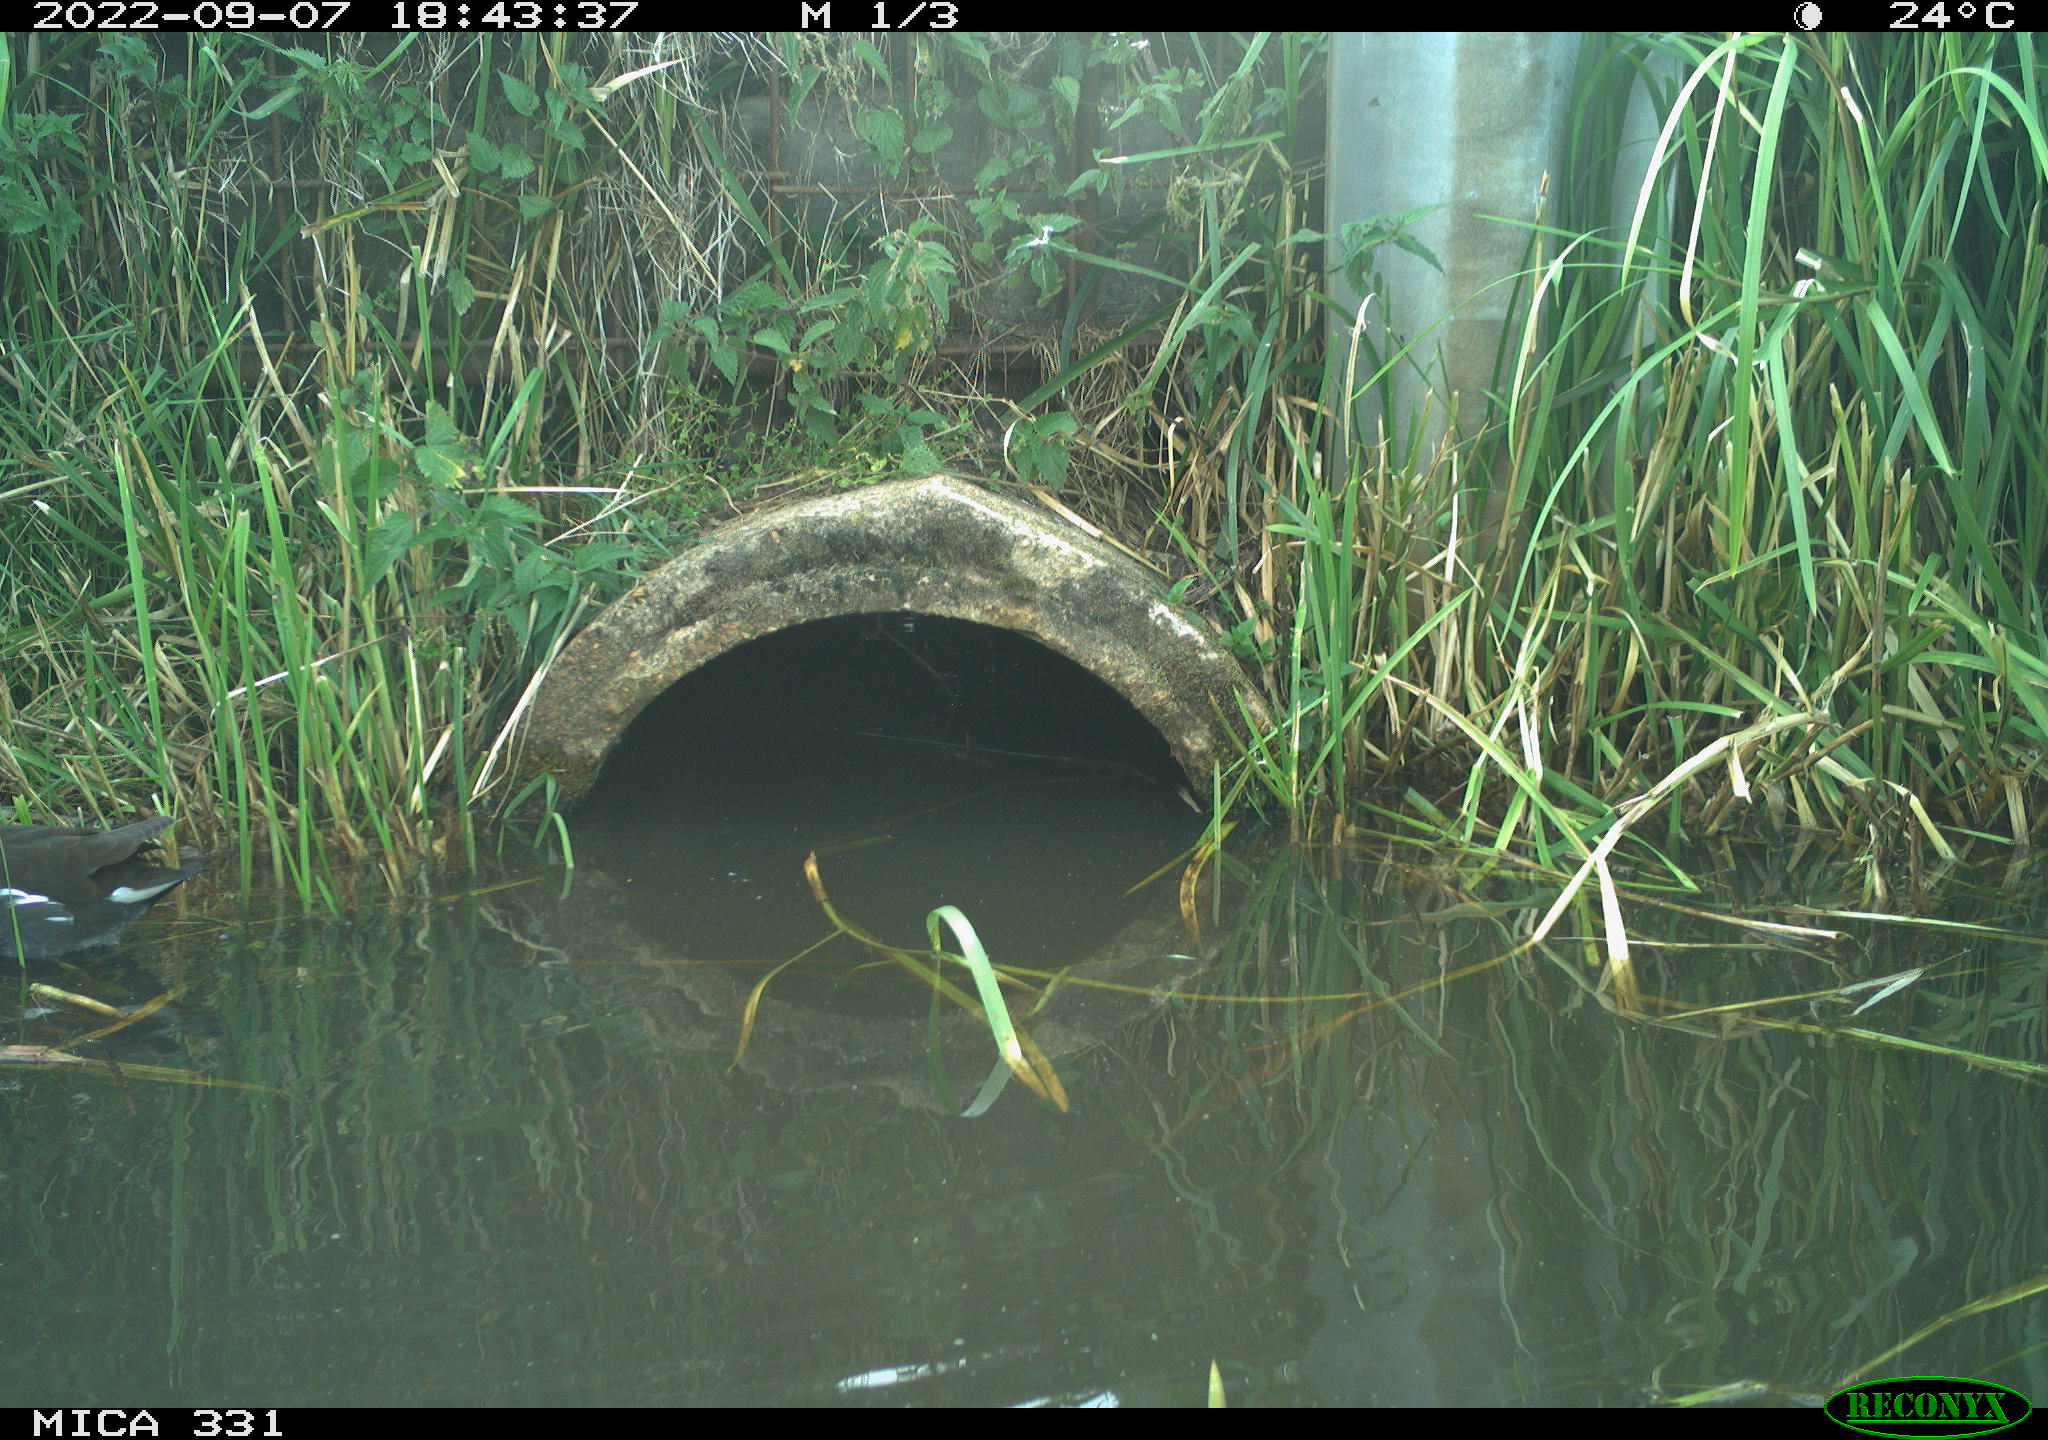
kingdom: Animalia
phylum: Chordata
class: Aves
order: Gruiformes
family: Rallidae
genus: Gallinula
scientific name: Gallinula chloropus
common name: Common moorhen
